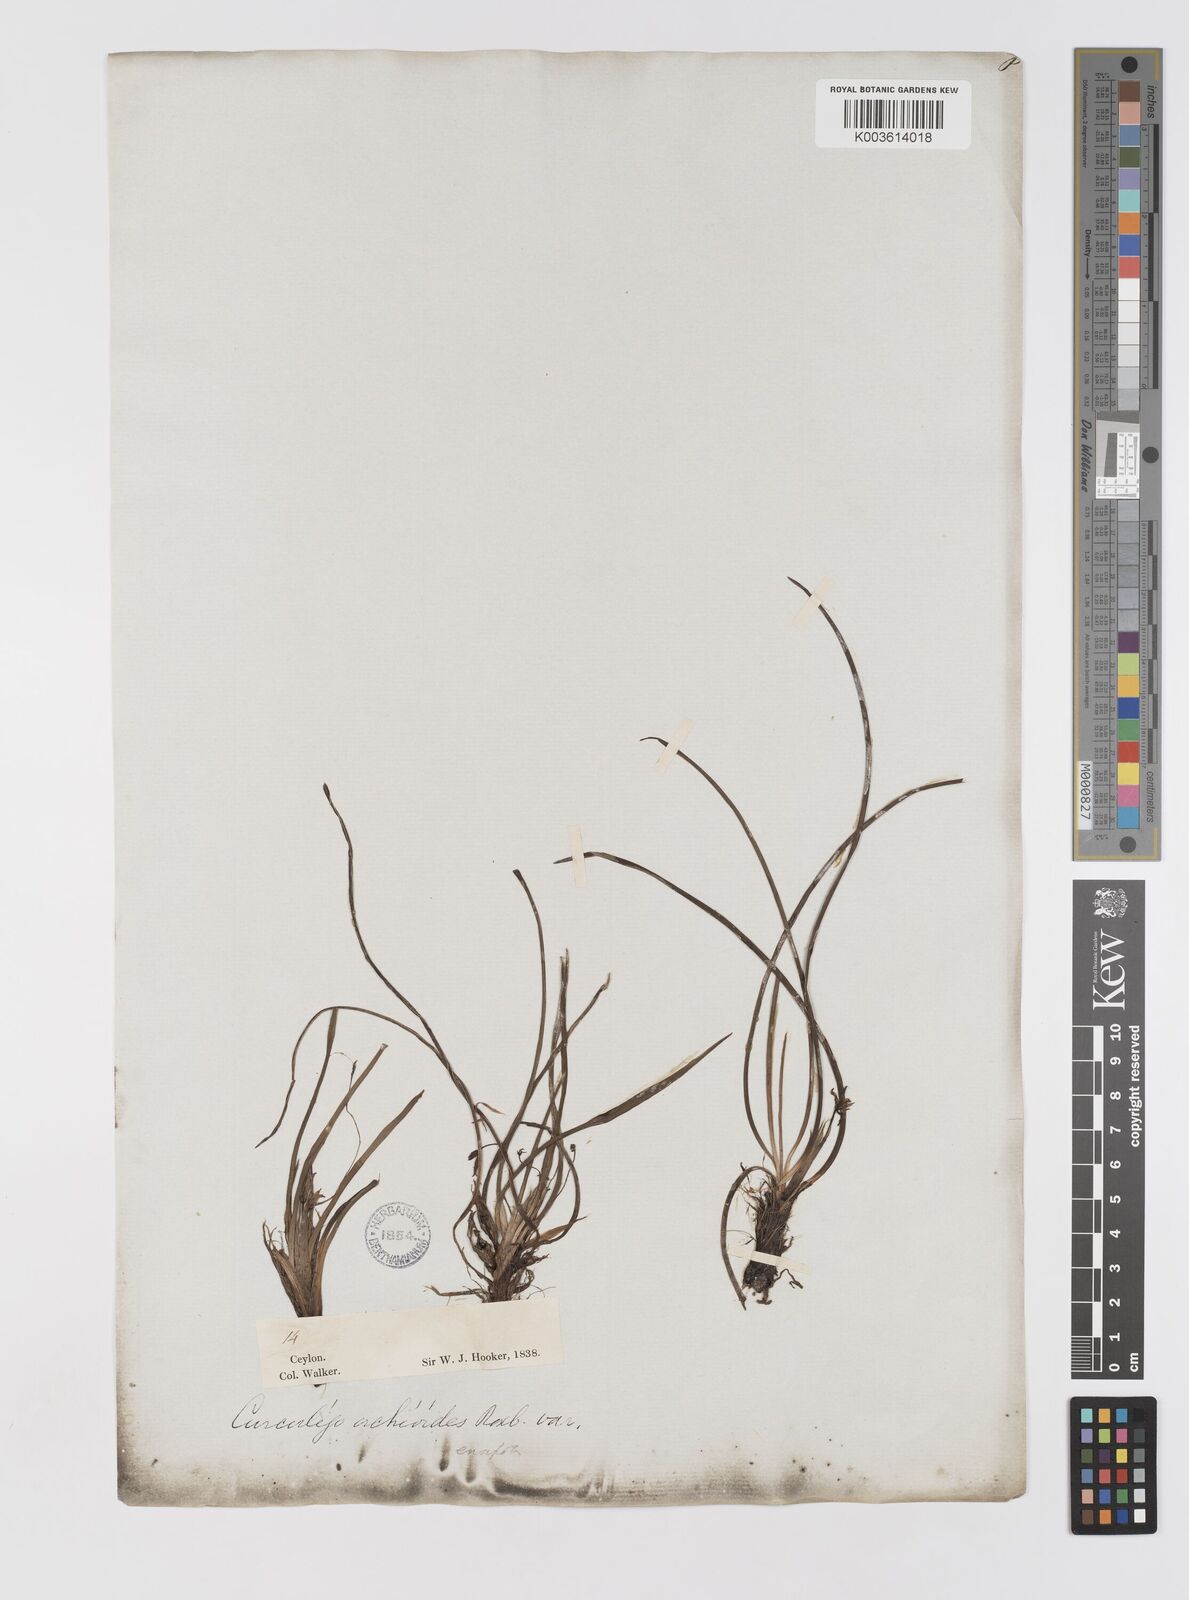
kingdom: Plantae
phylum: Tracheophyta
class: Liliopsida
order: Asparagales
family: Hypoxidaceae
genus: Curculigo
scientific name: Curculigo orchioides
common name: Golden eye-grass
